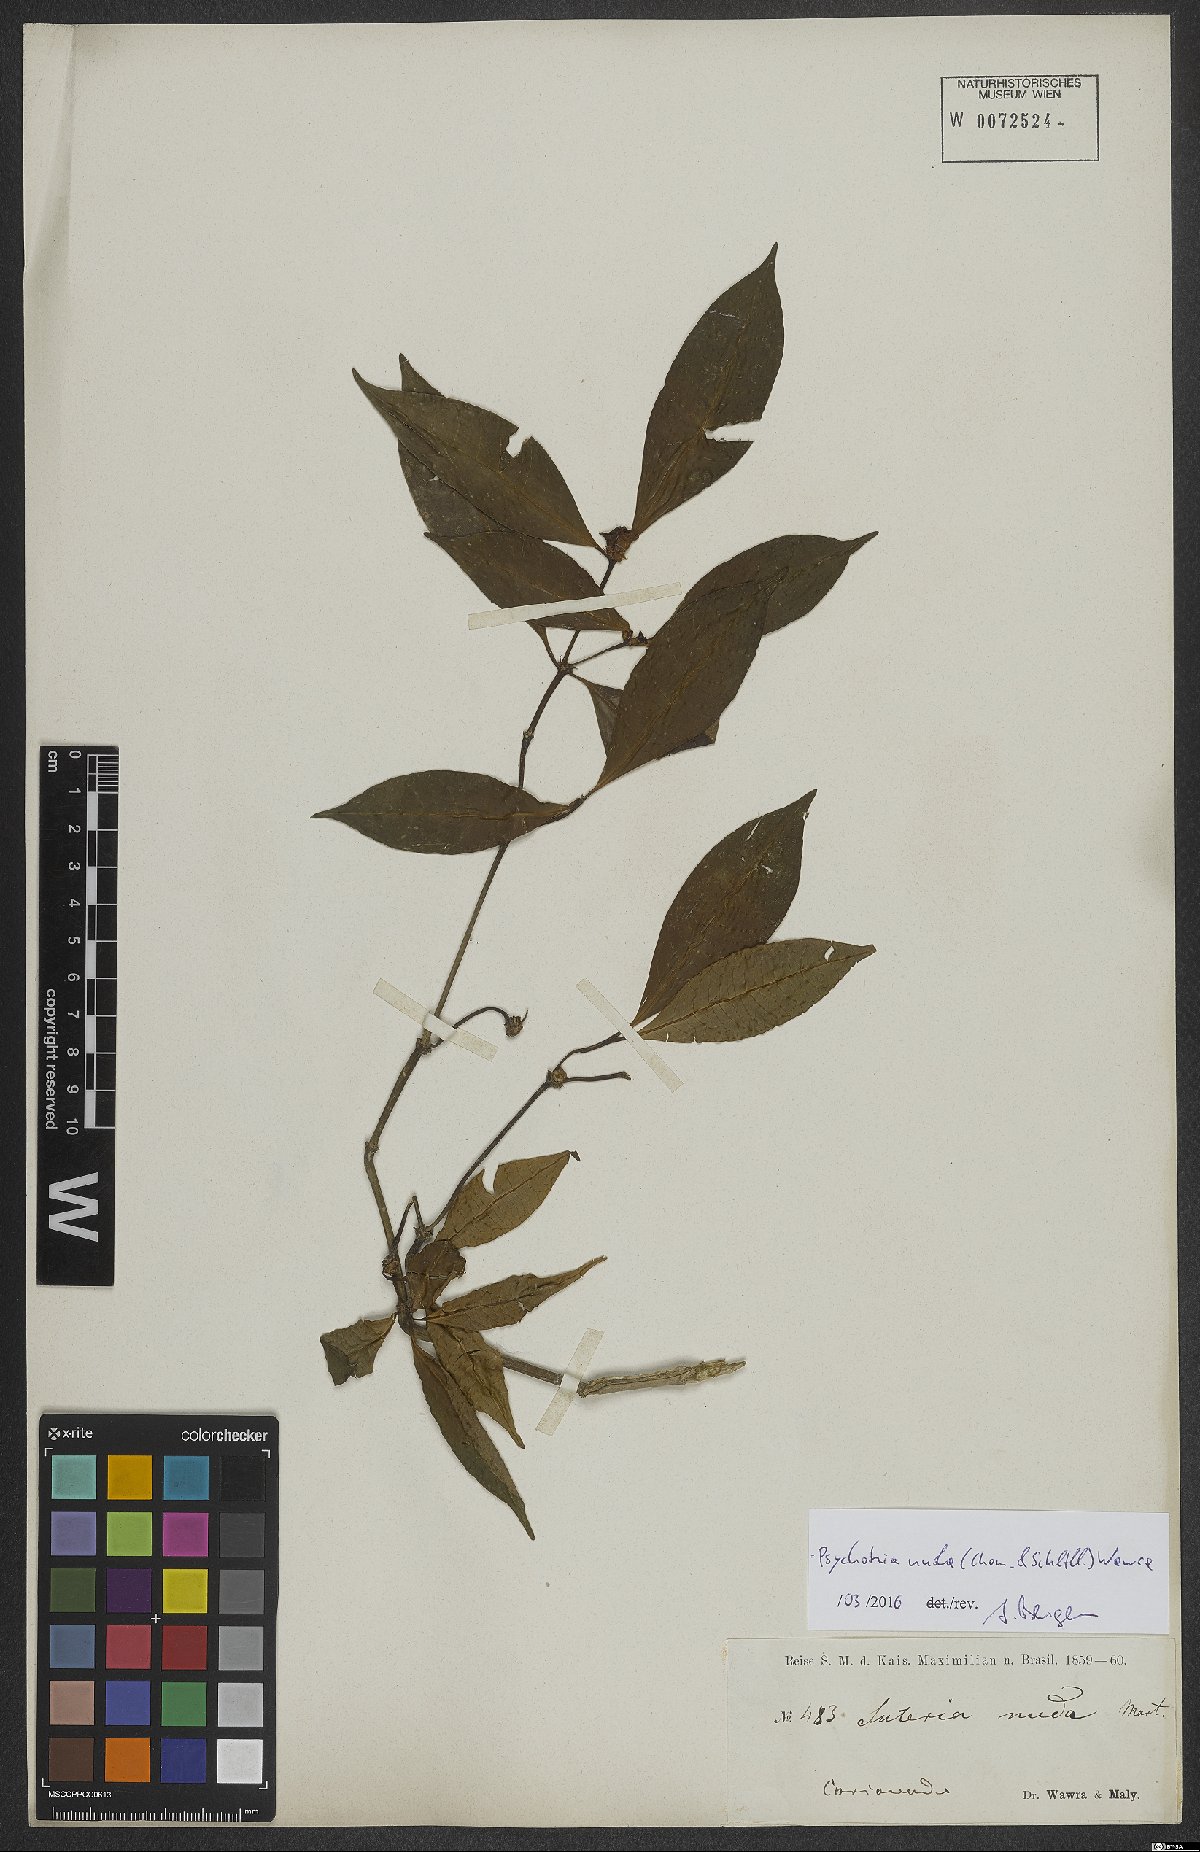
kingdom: Plantae
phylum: Tracheophyta
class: Magnoliopsida
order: Gentianales
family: Rubiaceae
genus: Psychotria
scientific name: Psychotria nuda
